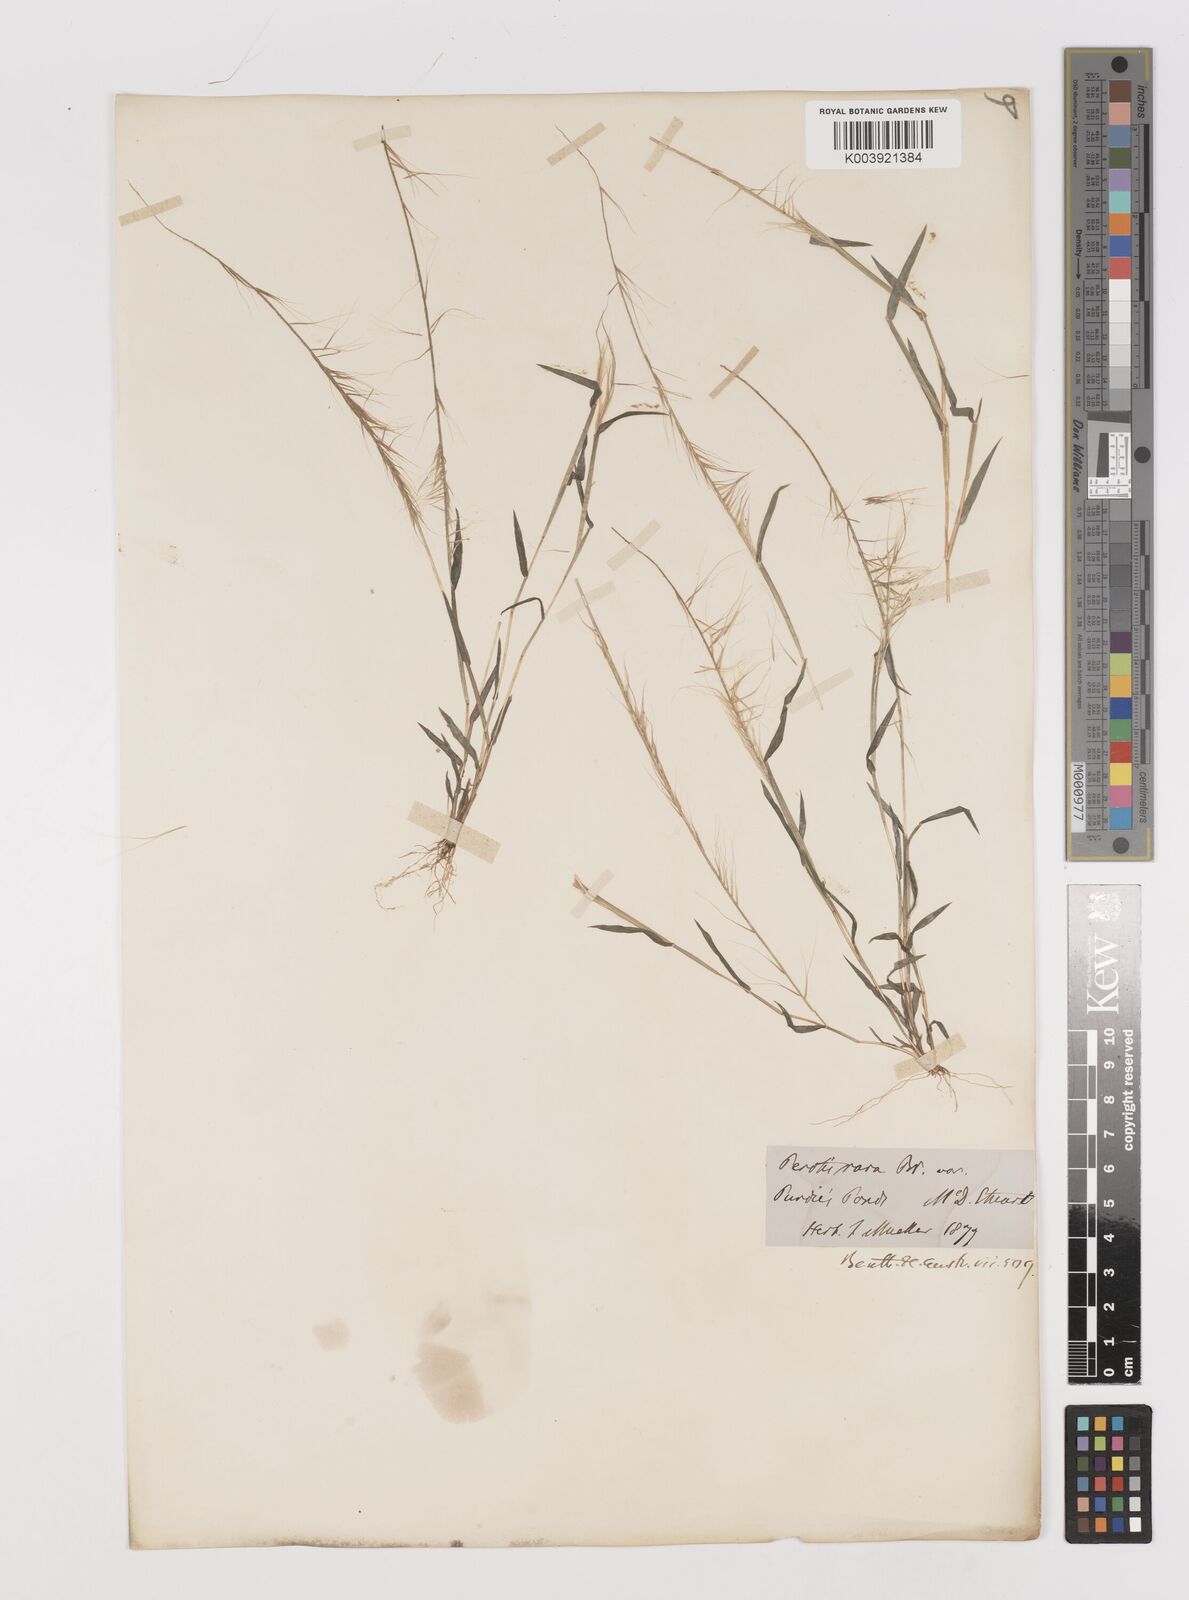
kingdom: Plantae
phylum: Tracheophyta
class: Liliopsida
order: Poales
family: Poaceae
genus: Perotis
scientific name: Perotis rara
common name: Comet grass
